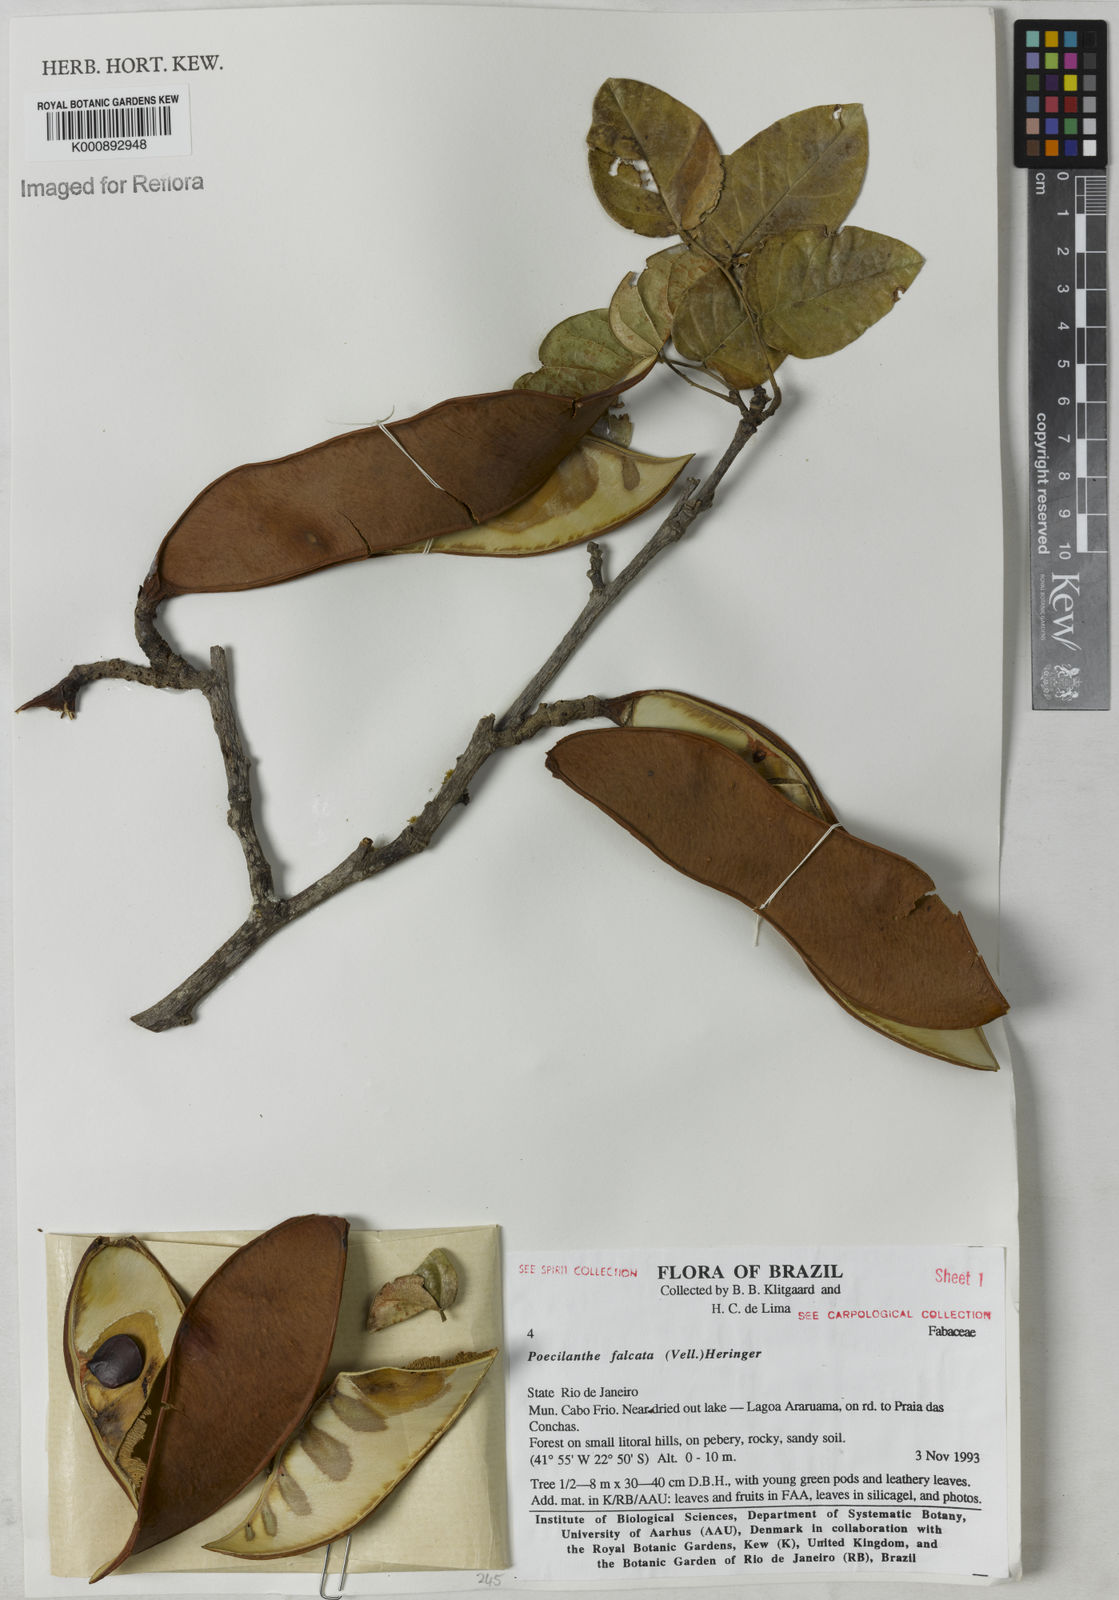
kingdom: Plantae
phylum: Tracheophyta
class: Magnoliopsida
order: Fabales
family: Fabaceae
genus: Poecilanthe
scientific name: Poecilanthe falcata
